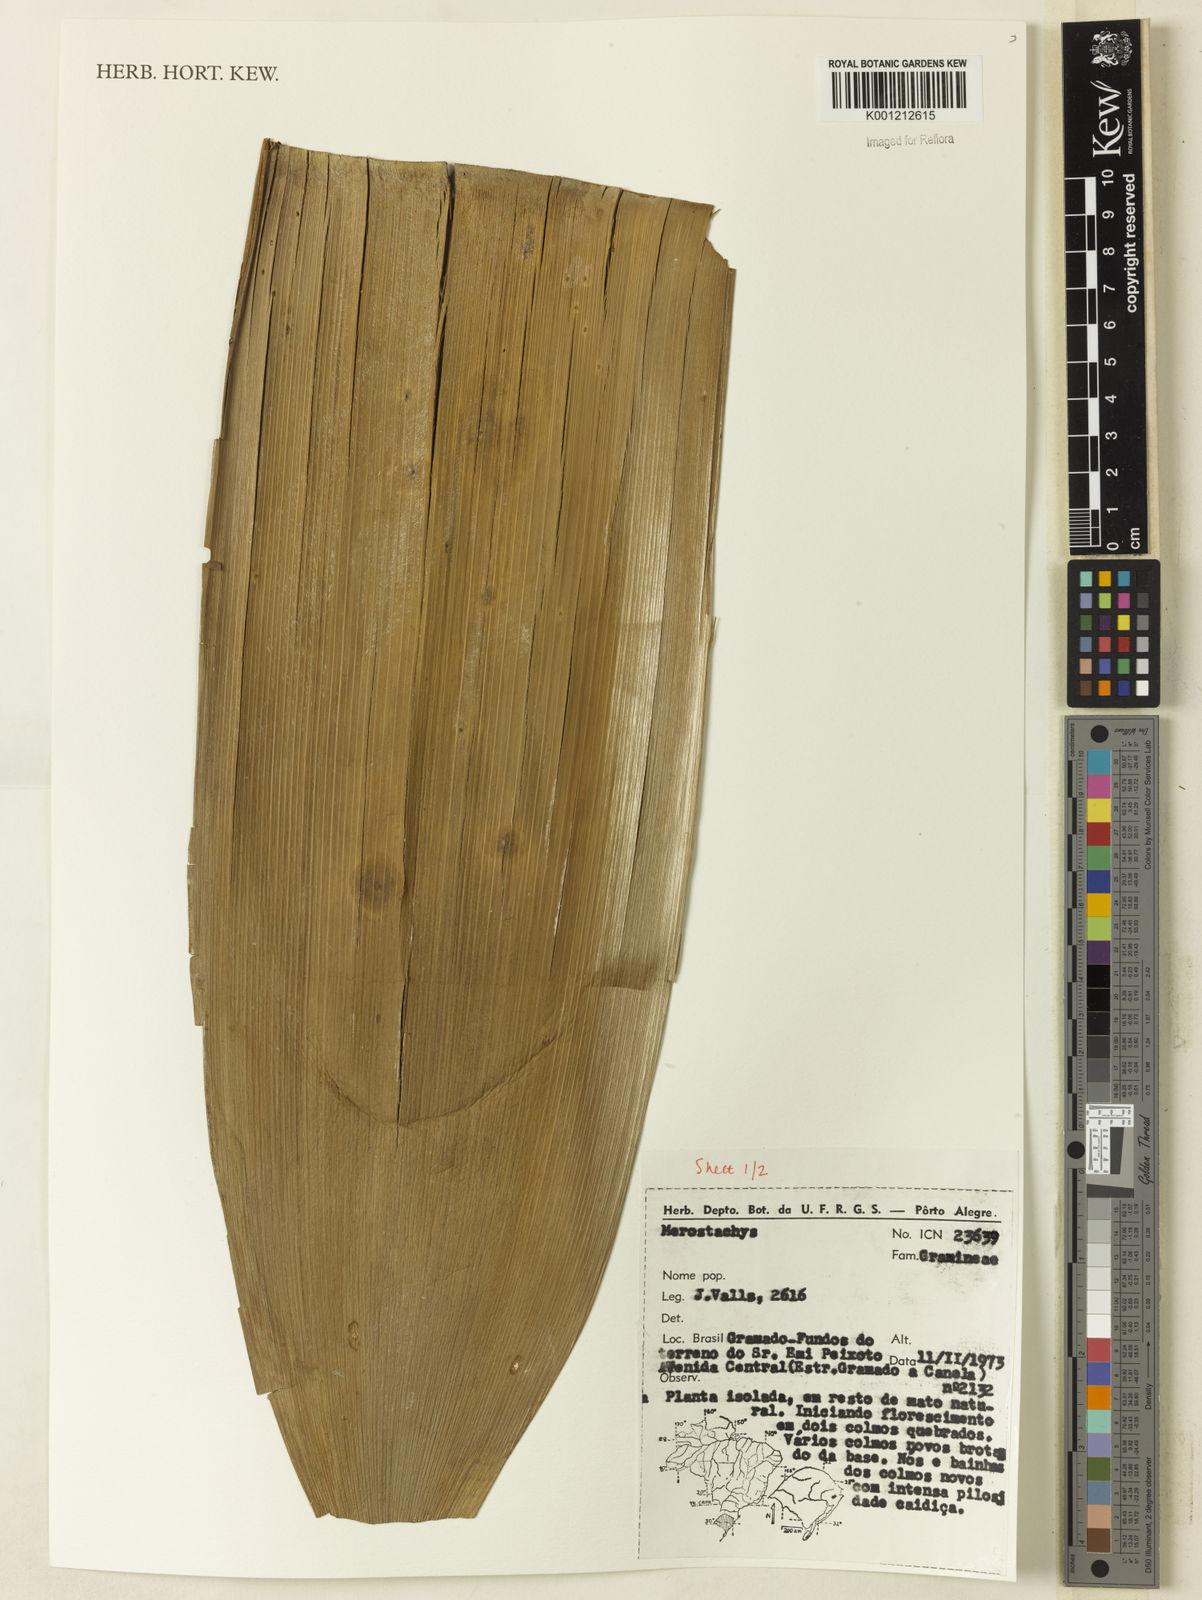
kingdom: Plantae
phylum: Tracheophyta
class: Liliopsida
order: Poales
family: Poaceae
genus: Merostachys
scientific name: Merostachys
